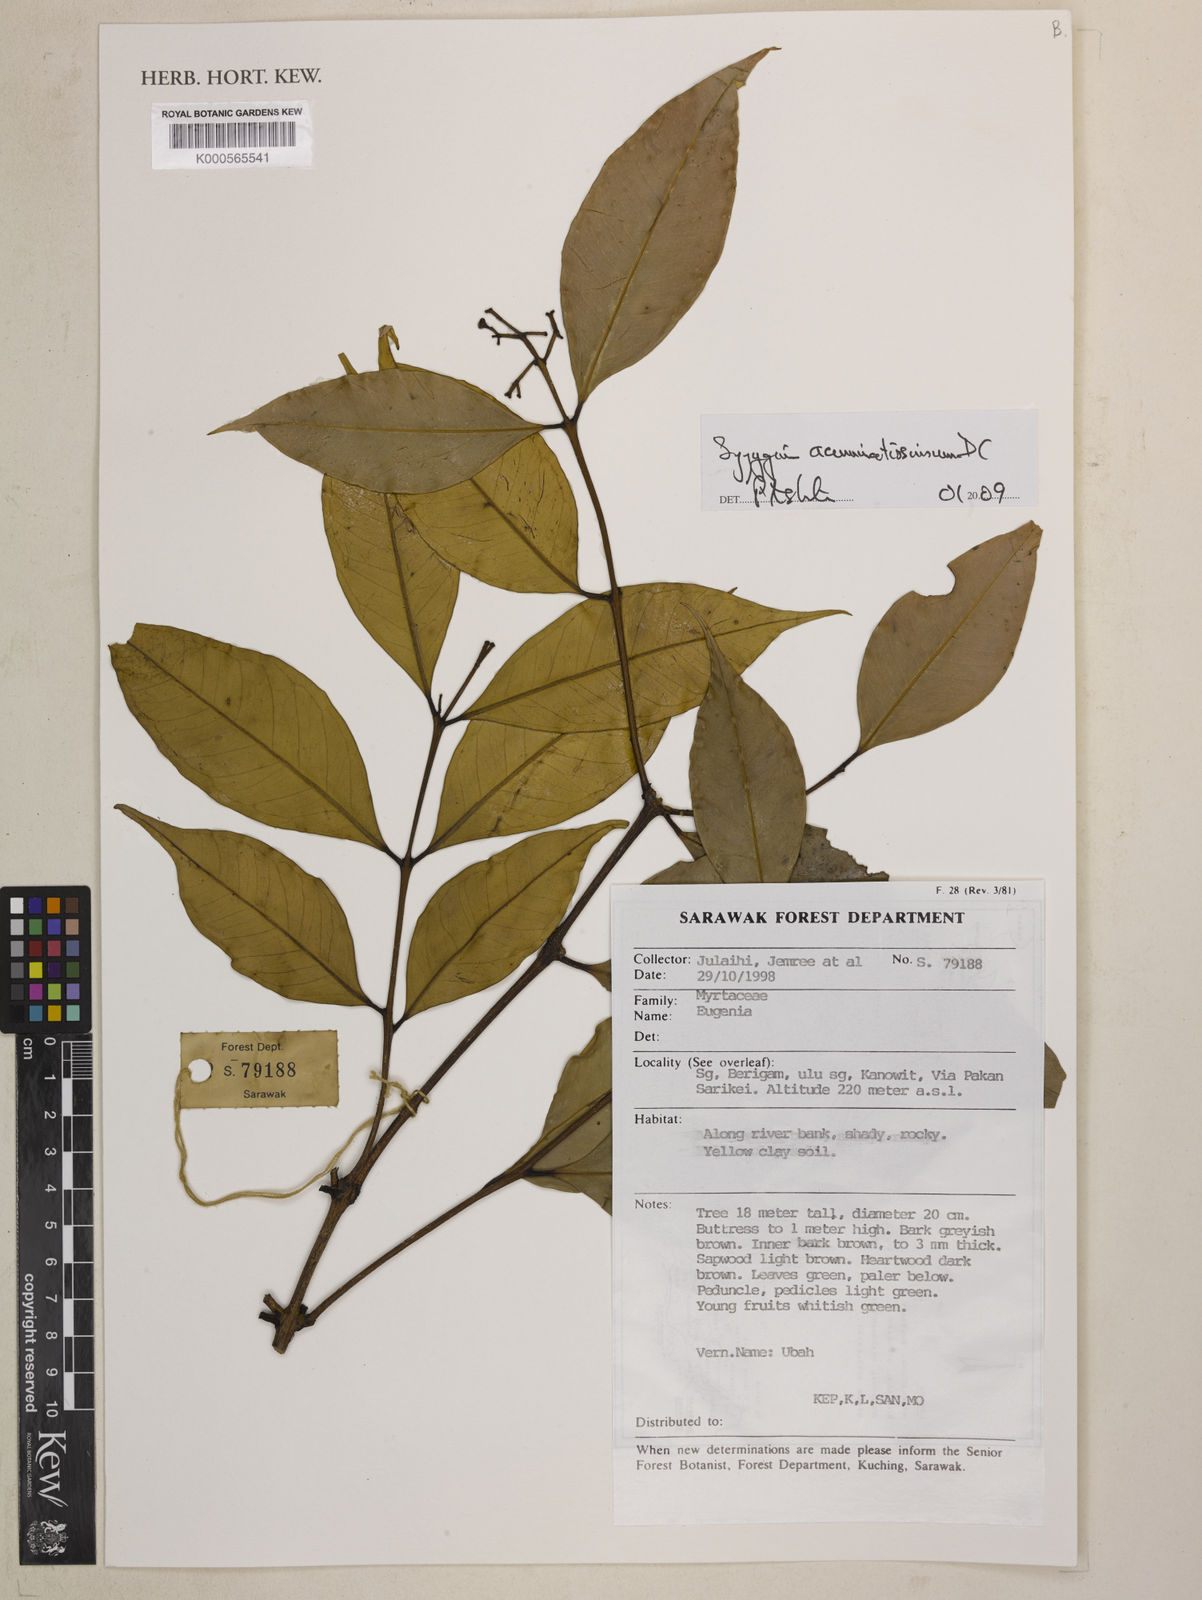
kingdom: Plantae
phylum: Tracheophyta
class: Magnoliopsida
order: Myrtales
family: Myrtaceae
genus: Syzygium
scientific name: Syzygium acuminatissimum
